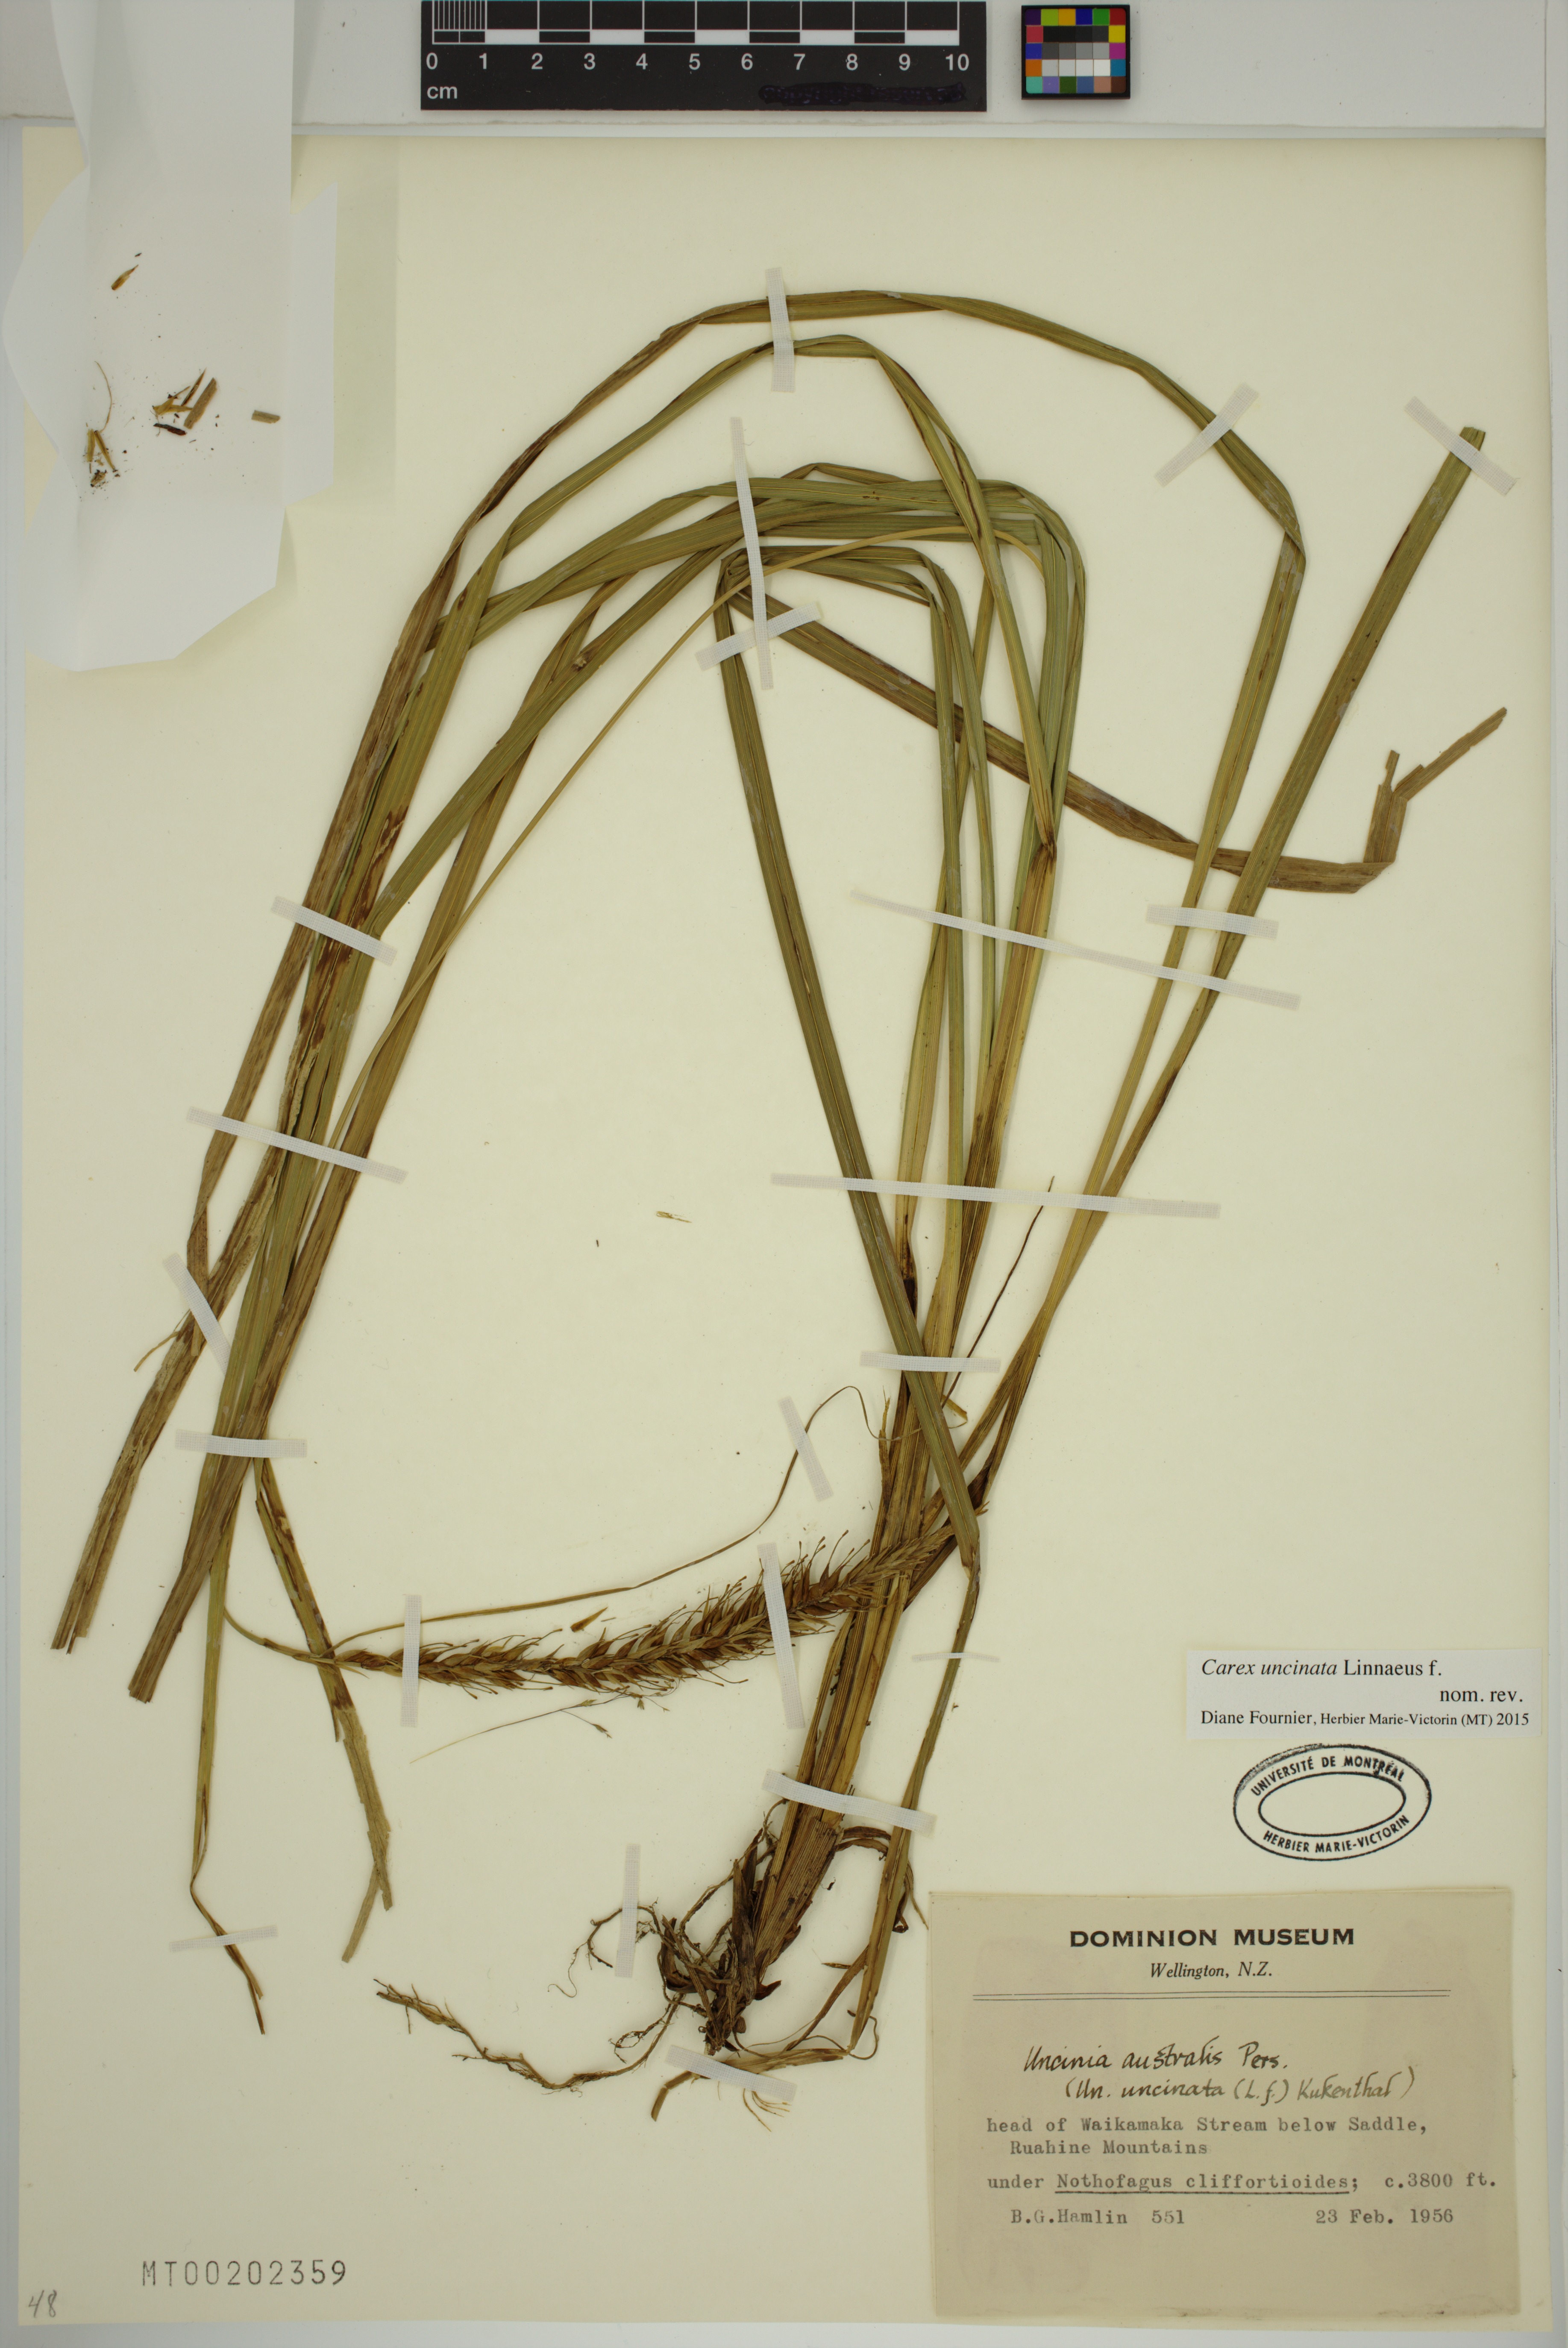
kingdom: Plantae
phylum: Tracheophyta
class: Liliopsida
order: Poales
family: Cyperaceae
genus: Carex
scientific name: Carex uncinata
